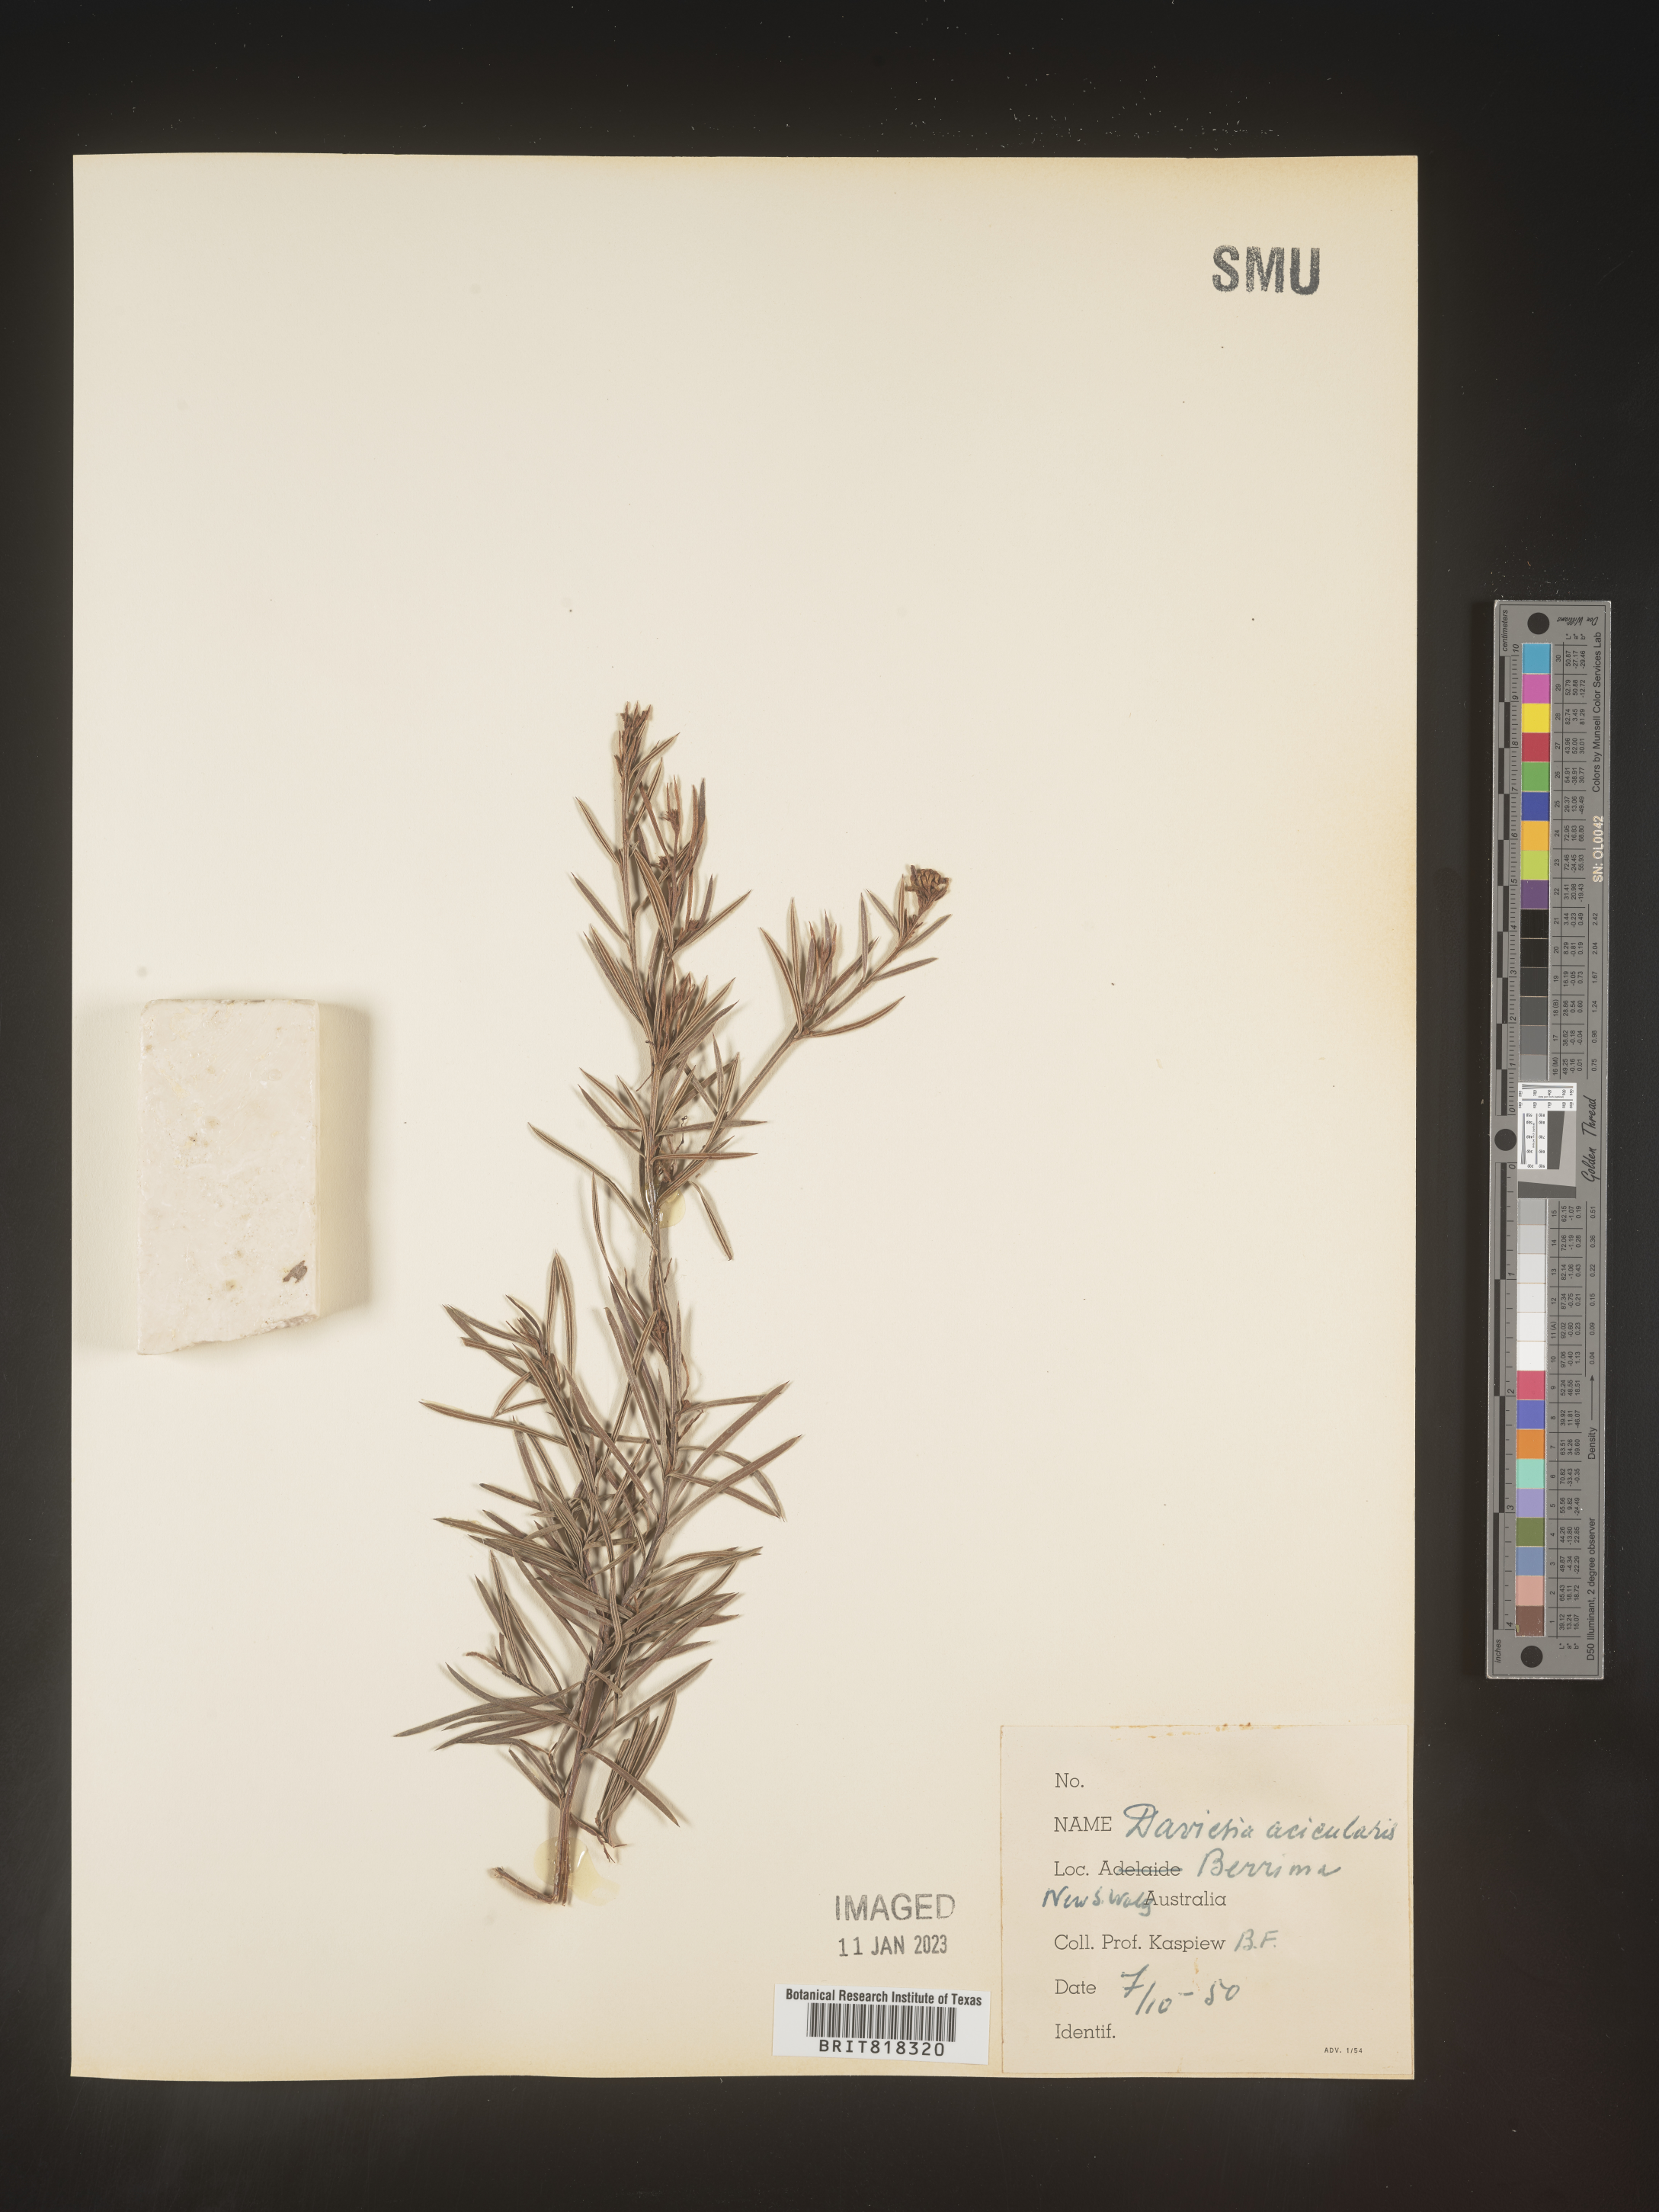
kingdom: Plantae
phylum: Tracheophyta
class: Magnoliopsida
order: Fabales
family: Fabaceae
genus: Daviesia
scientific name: Daviesia
